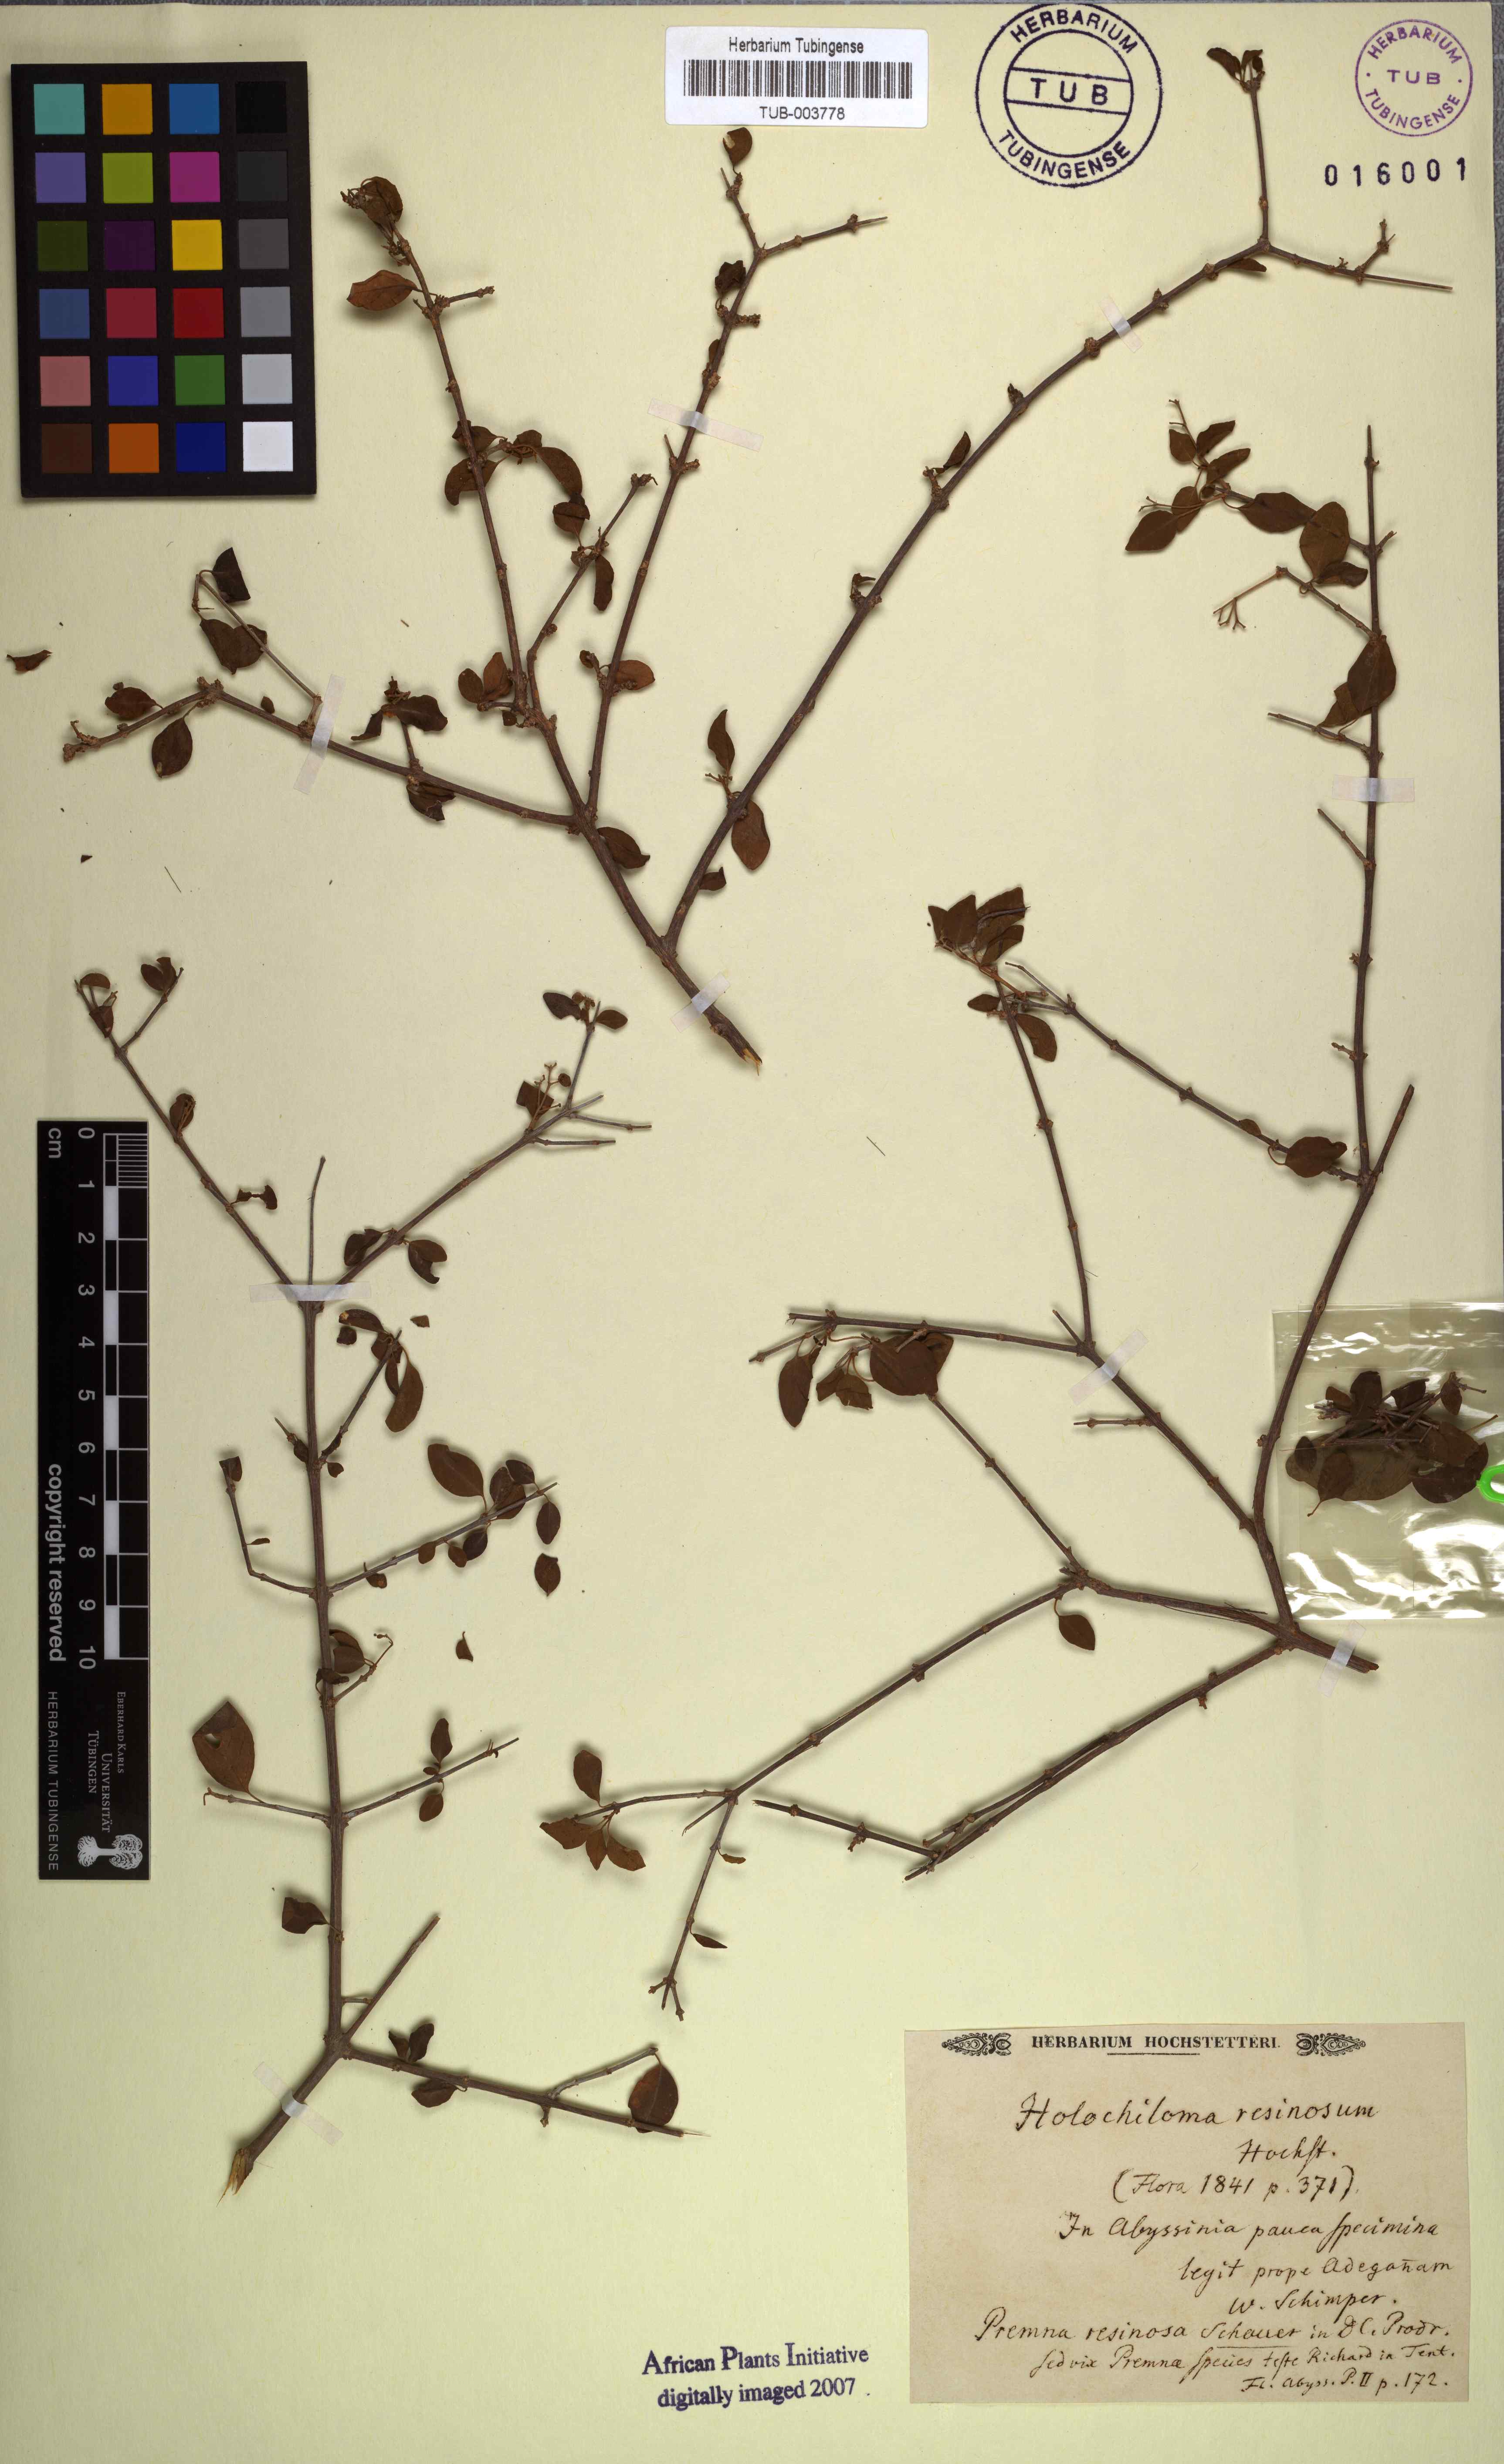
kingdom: Plantae
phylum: Tracheophyta
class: Magnoliopsida
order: Lamiales
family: Lamiaceae
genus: Premna
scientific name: Premna resinosa
